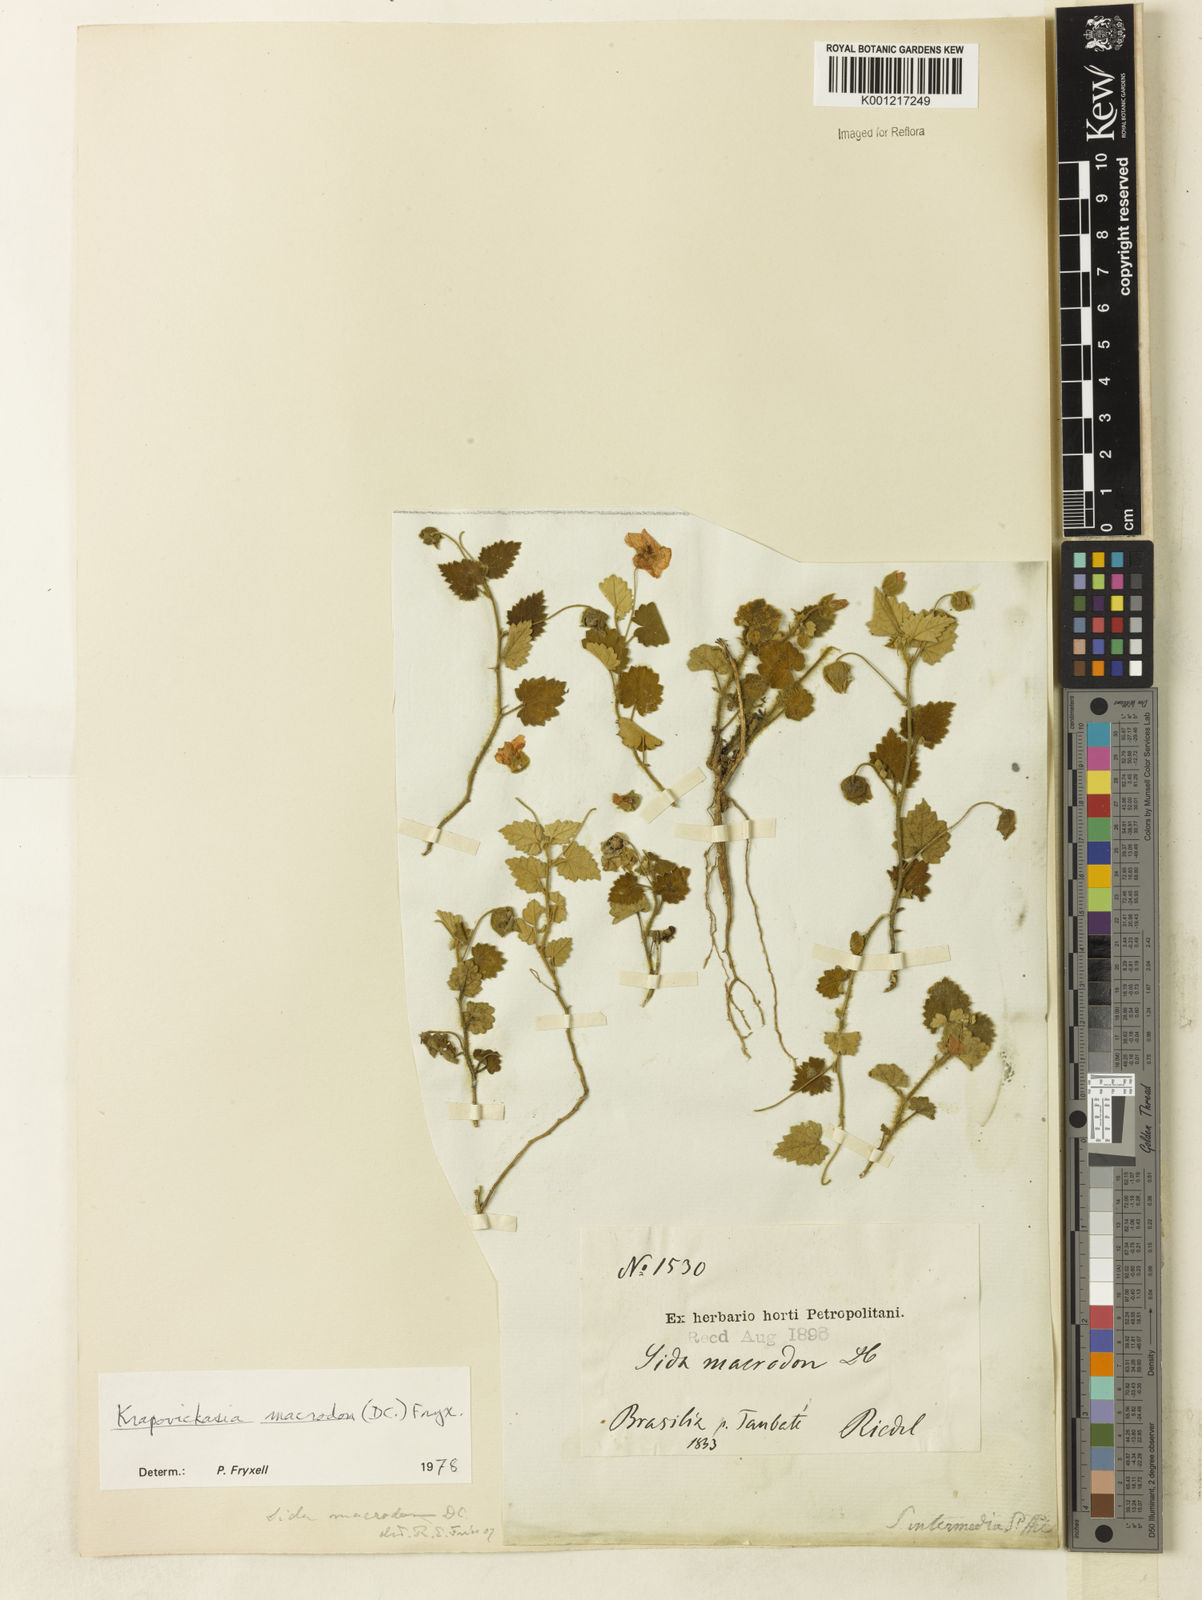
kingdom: Plantae
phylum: Tracheophyta
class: Magnoliopsida
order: Malvales
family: Malvaceae
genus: Krapovickasia
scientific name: Krapovickasia macrodon
